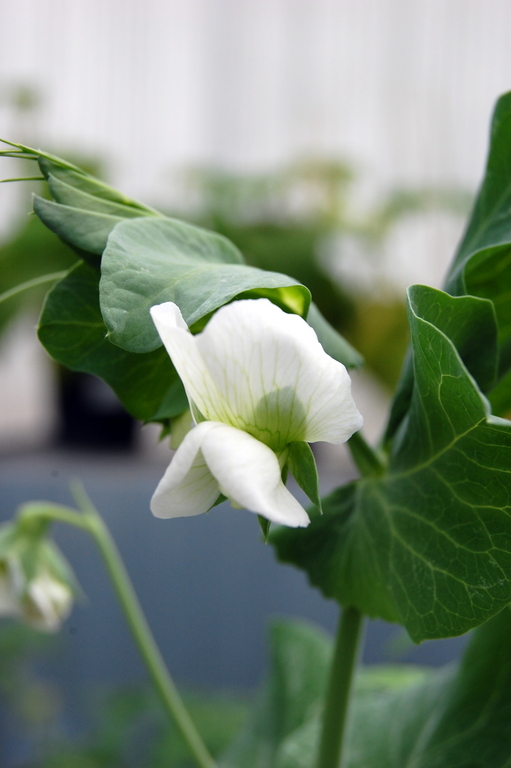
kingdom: Plantae
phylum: Tracheophyta
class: Magnoliopsida
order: Fabales
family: Fabaceae
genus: Lathyrus
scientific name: Lathyrus oleraceus
